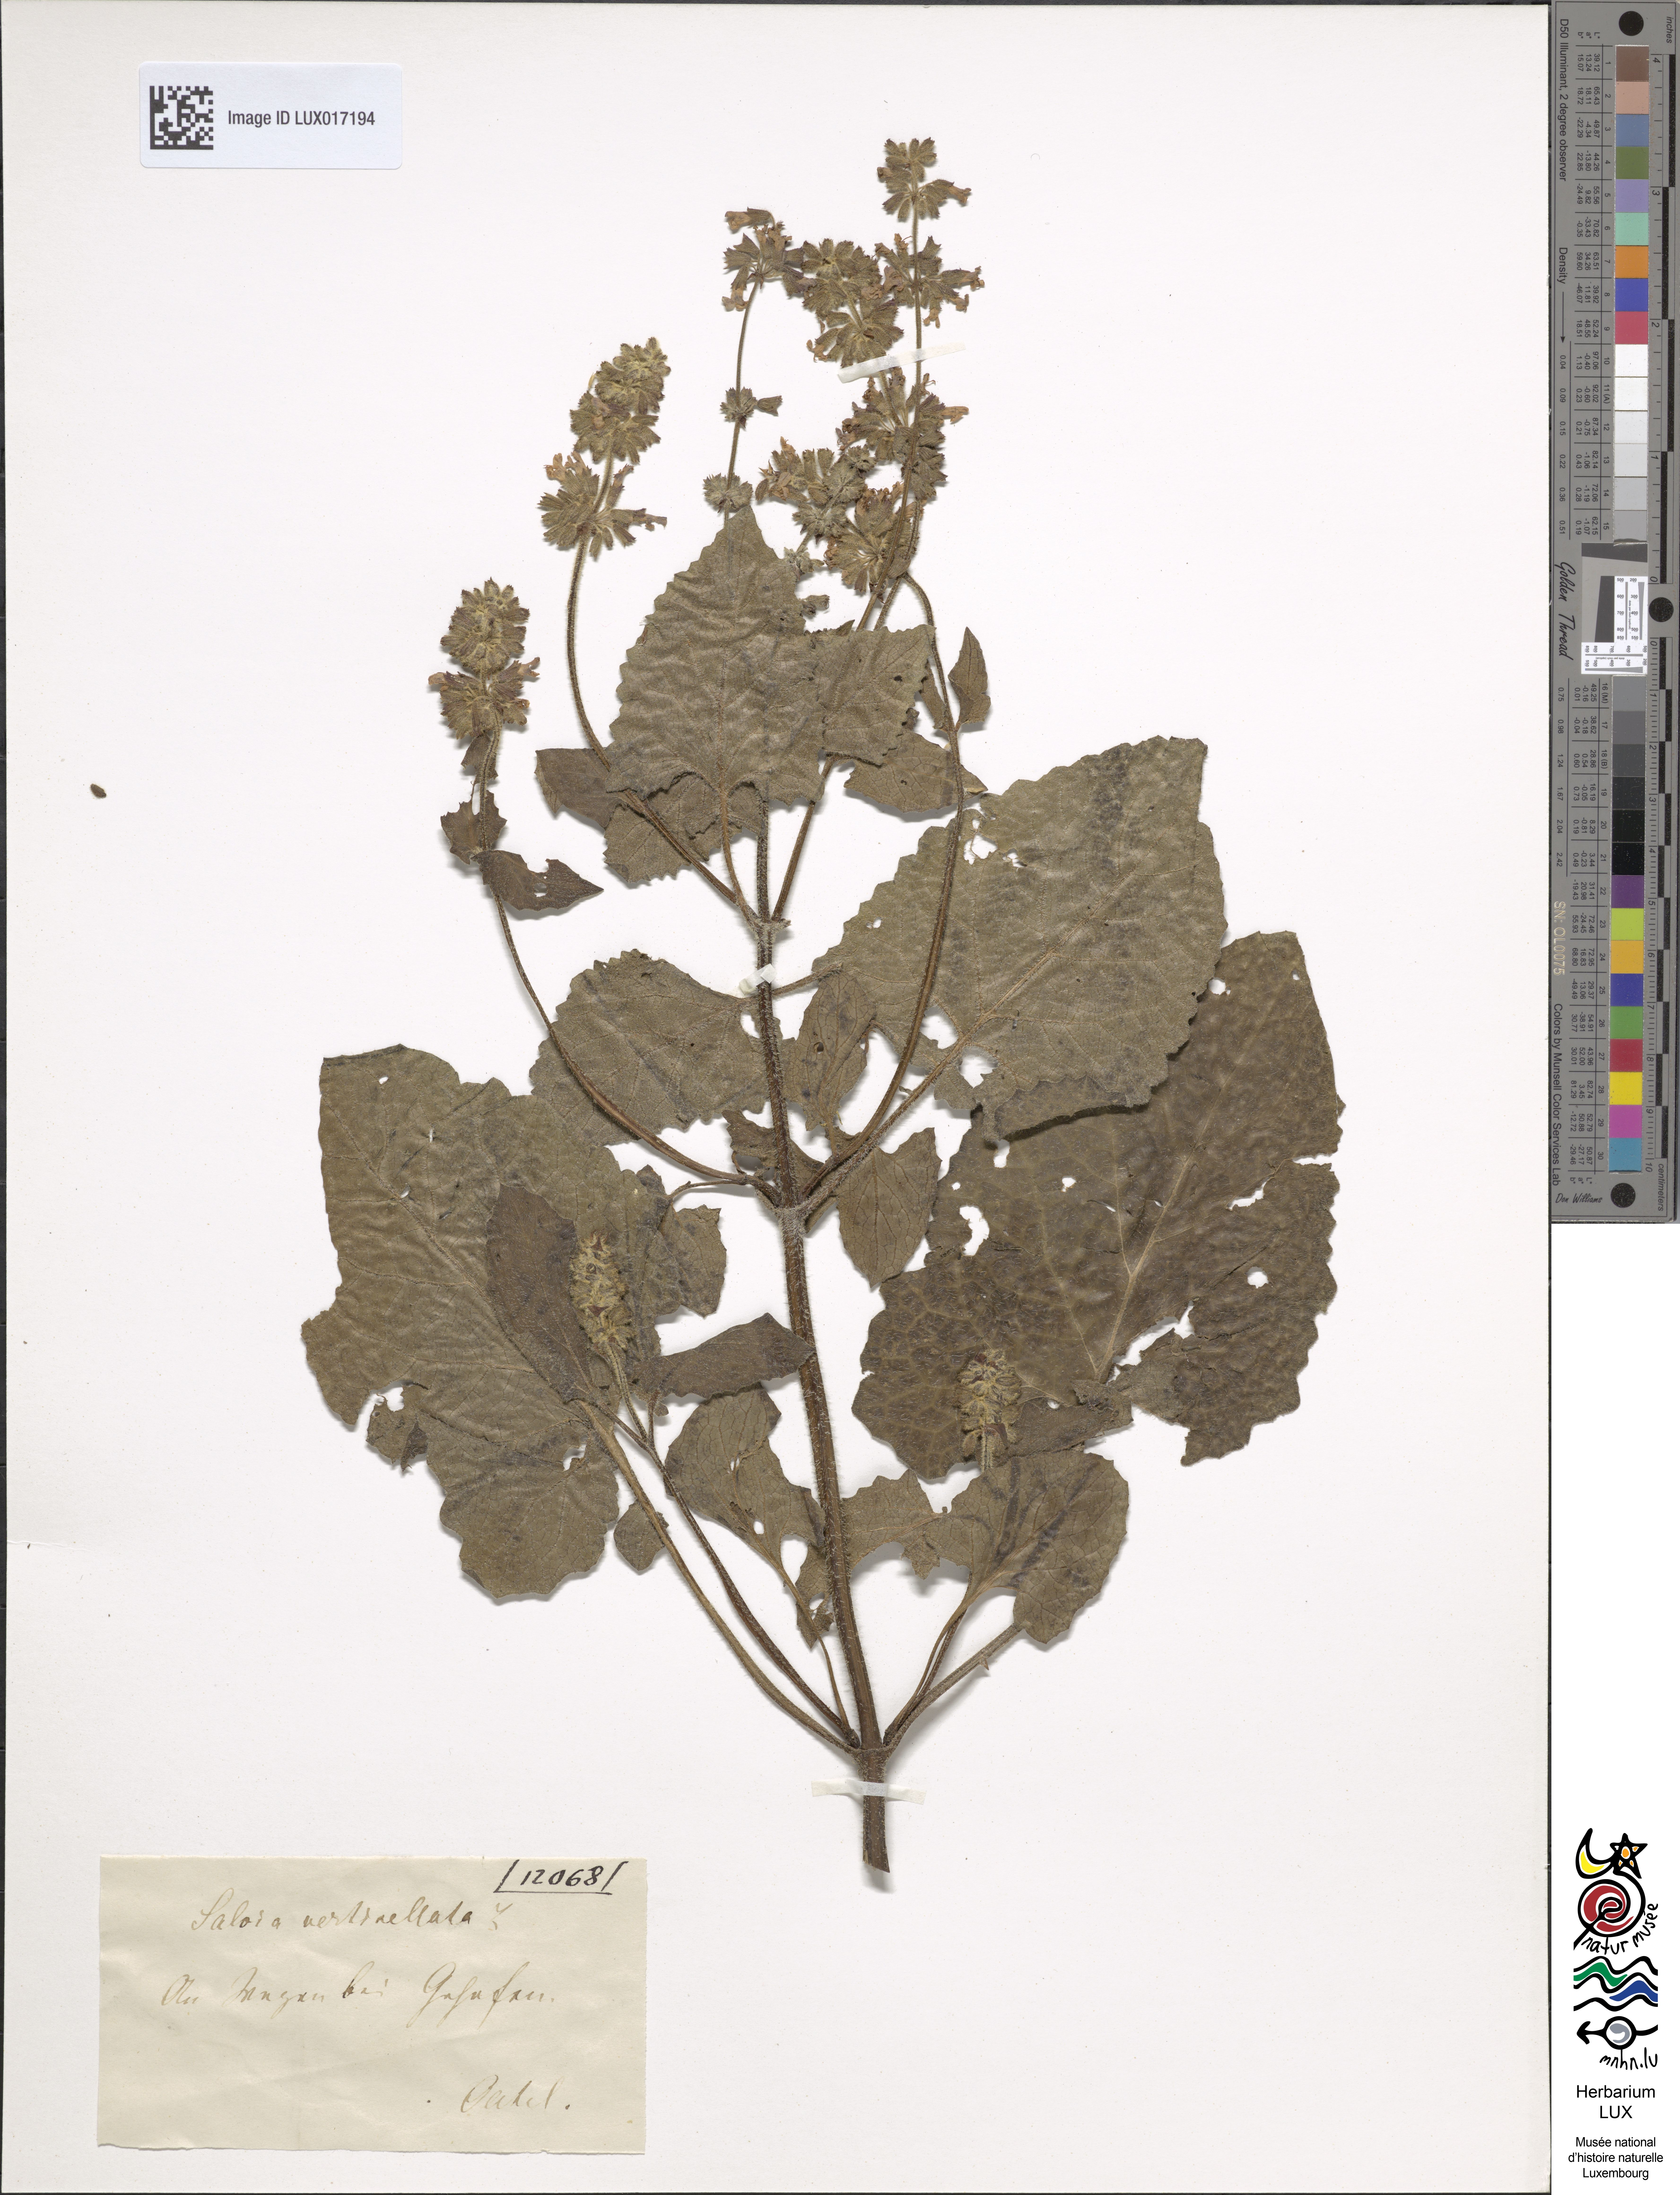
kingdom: Plantae
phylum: Tracheophyta
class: Magnoliopsida
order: Lamiales
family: Lamiaceae
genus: Salvia
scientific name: Salvia verticillata
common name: Whorled clary
